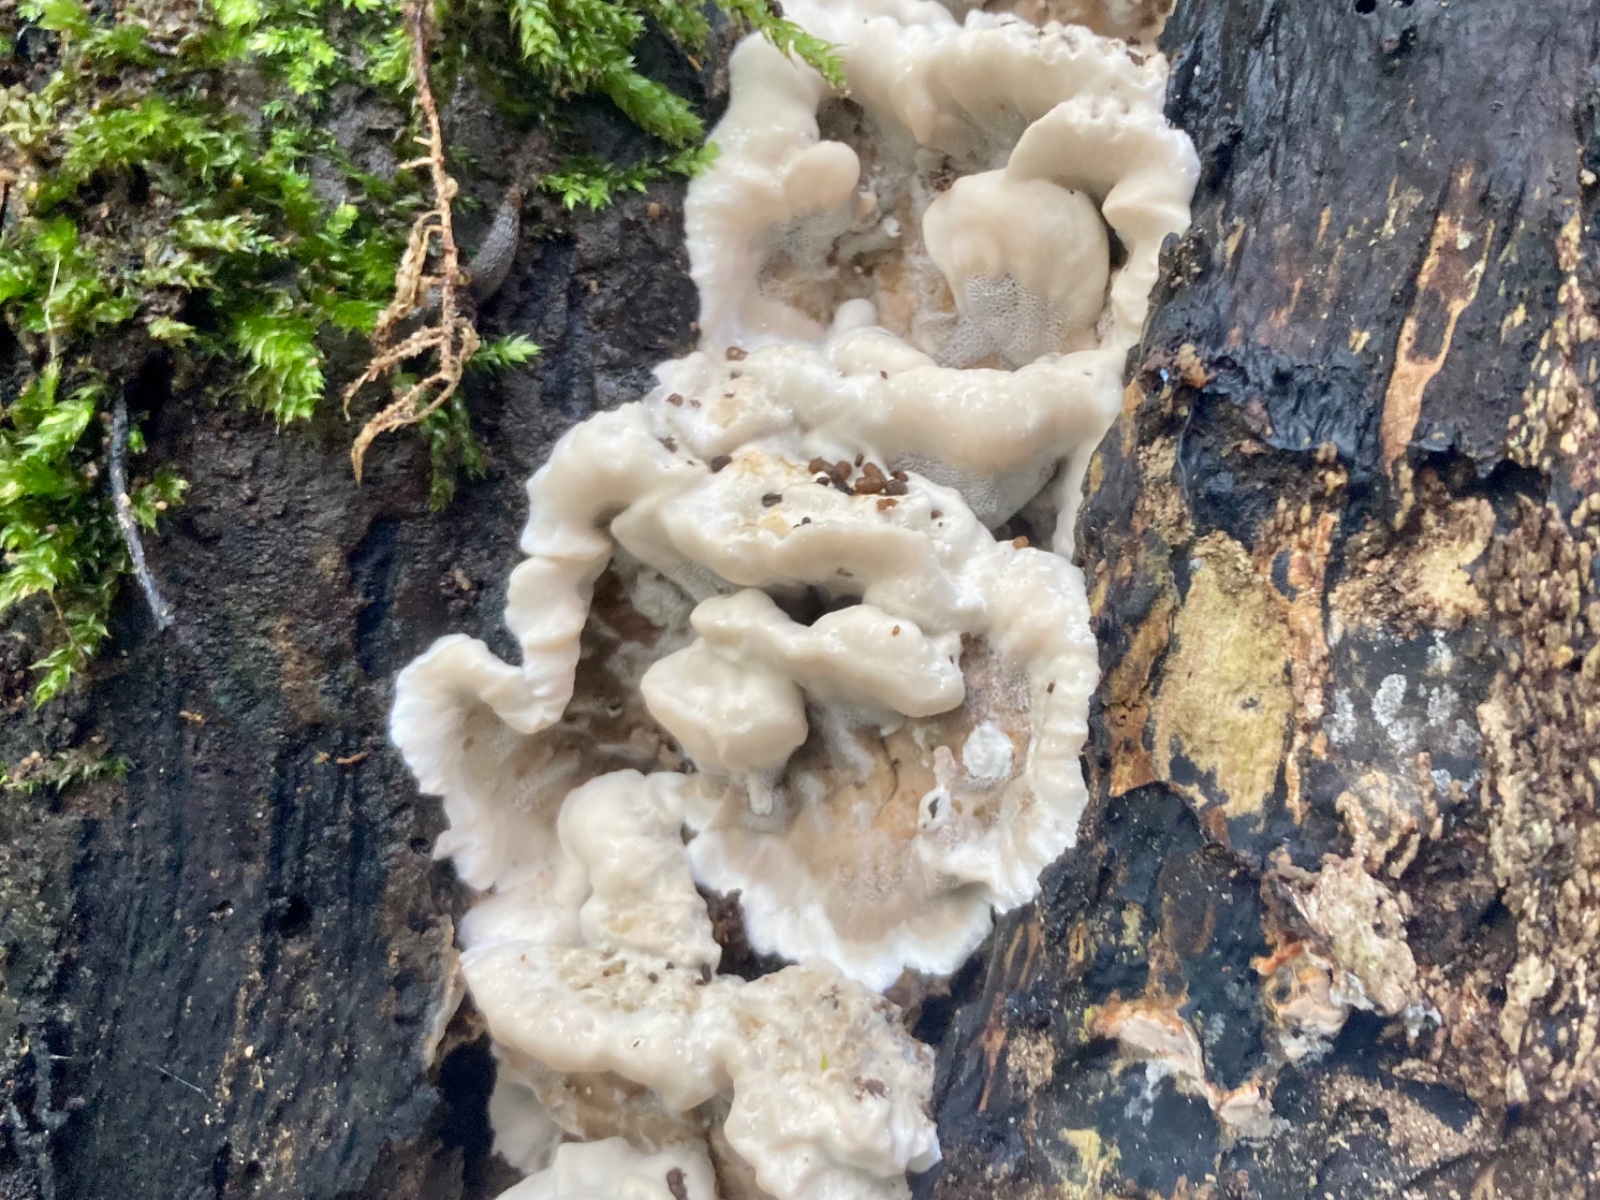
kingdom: Fungi
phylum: Basidiomycota
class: Agaricomycetes
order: Polyporales
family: Phanerochaetaceae
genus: Bjerkandera
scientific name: Bjerkandera adusta
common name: sveden sodporesvamp
